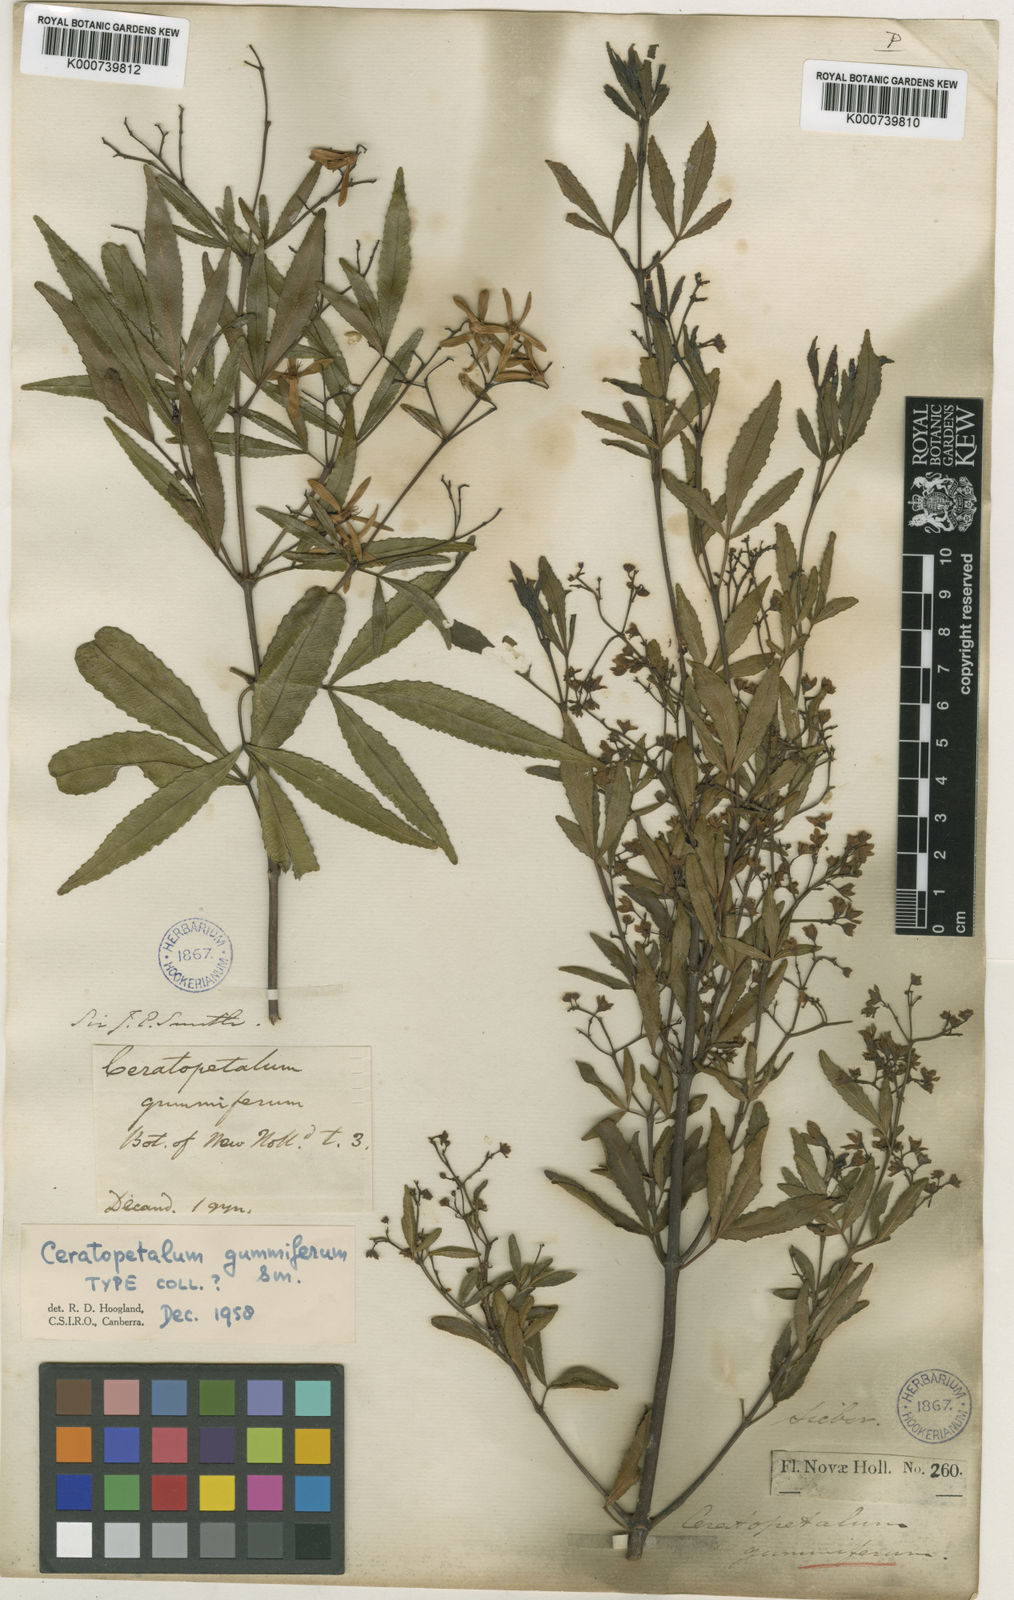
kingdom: Plantae
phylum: Tracheophyta
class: Magnoliopsida
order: Oxalidales
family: Cunoniaceae
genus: Ceratopetalum
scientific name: Ceratopetalum gummiferum
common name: Christmasbush
